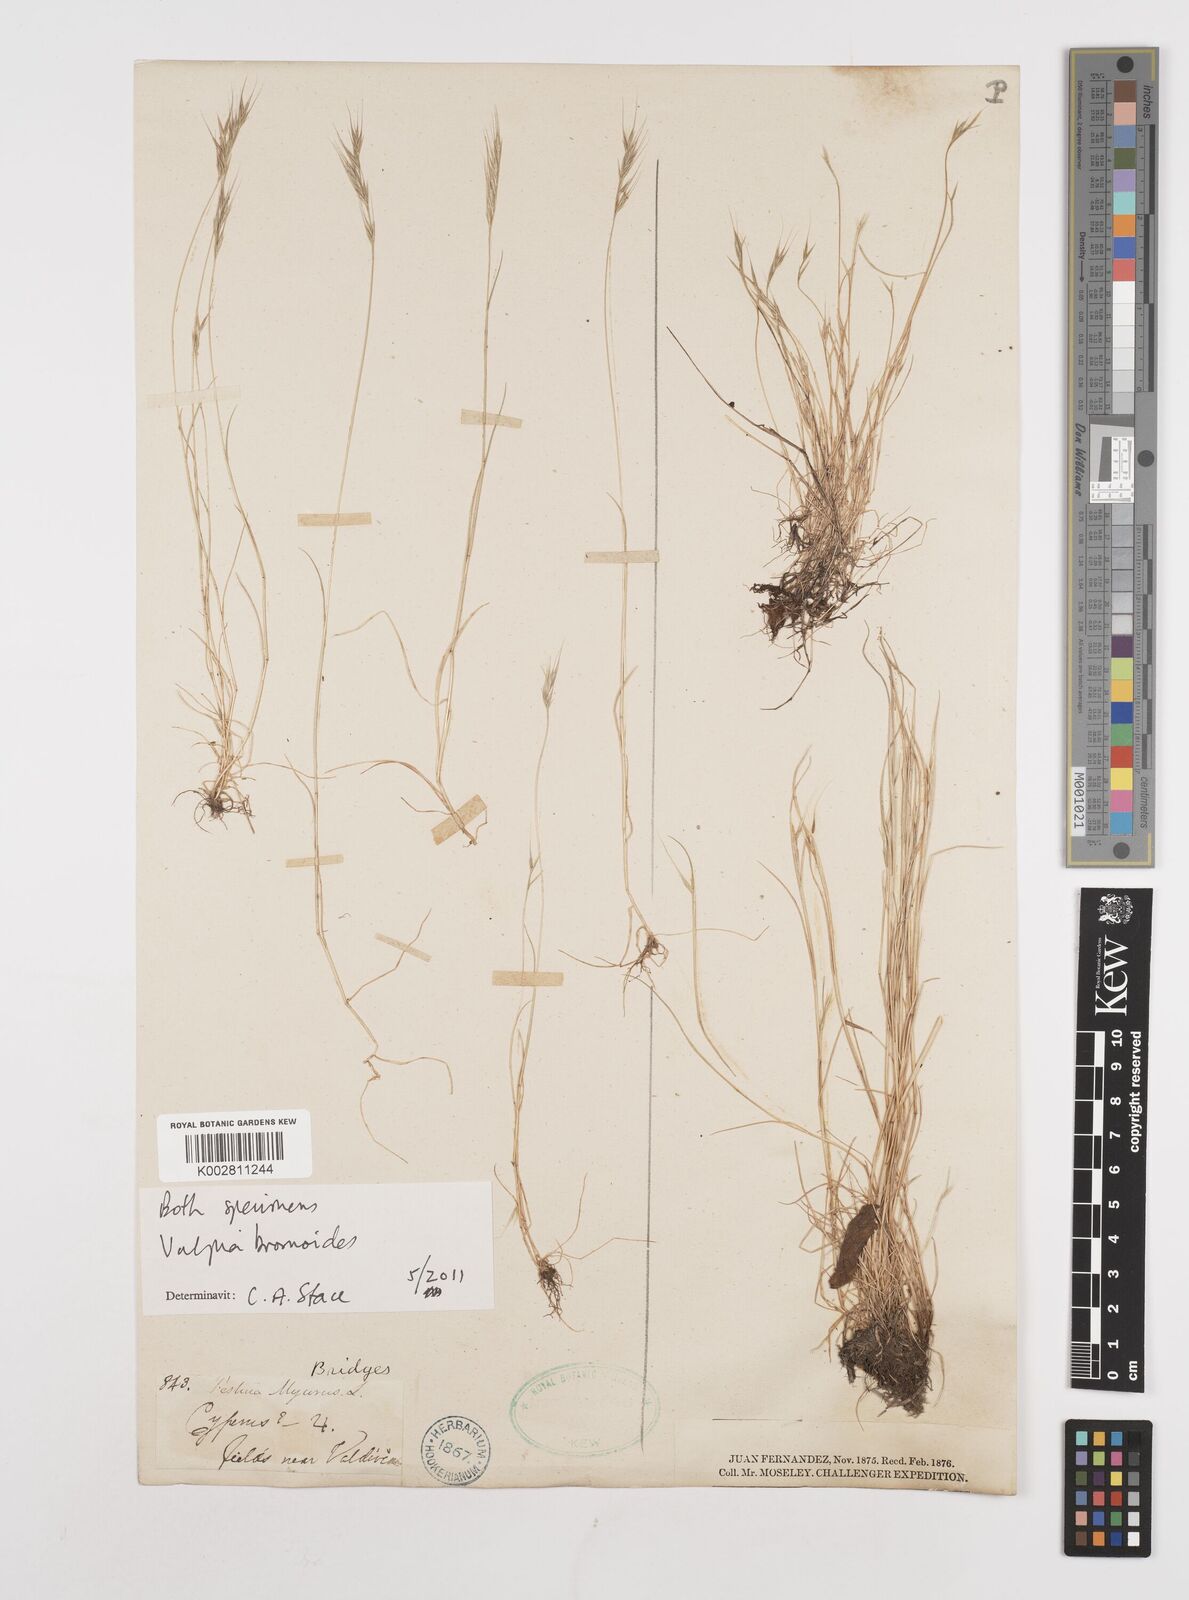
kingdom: Plantae
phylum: Tracheophyta
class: Liliopsida
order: Poales
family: Poaceae
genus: Festuca
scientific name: Festuca bromoides
